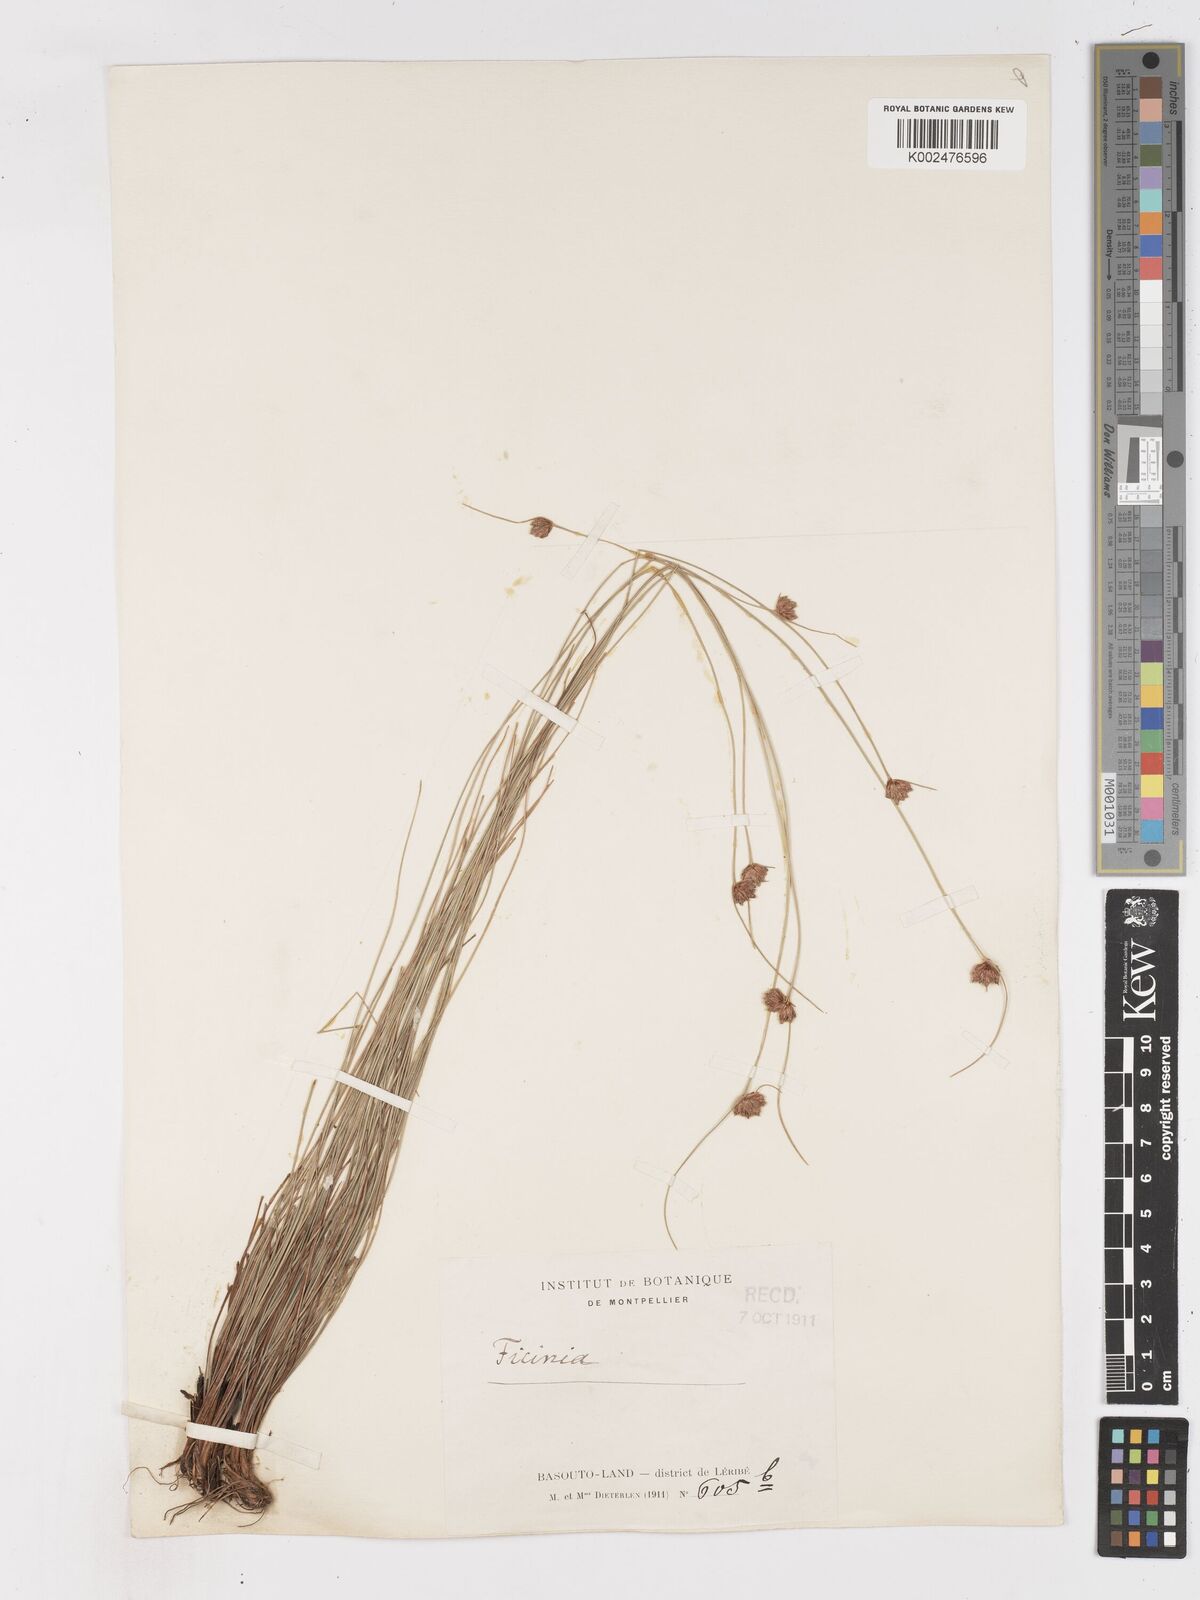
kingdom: Plantae
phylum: Tracheophyta
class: Liliopsida
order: Poales
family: Cyperaceae
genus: Ficinia
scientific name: Ficinia
